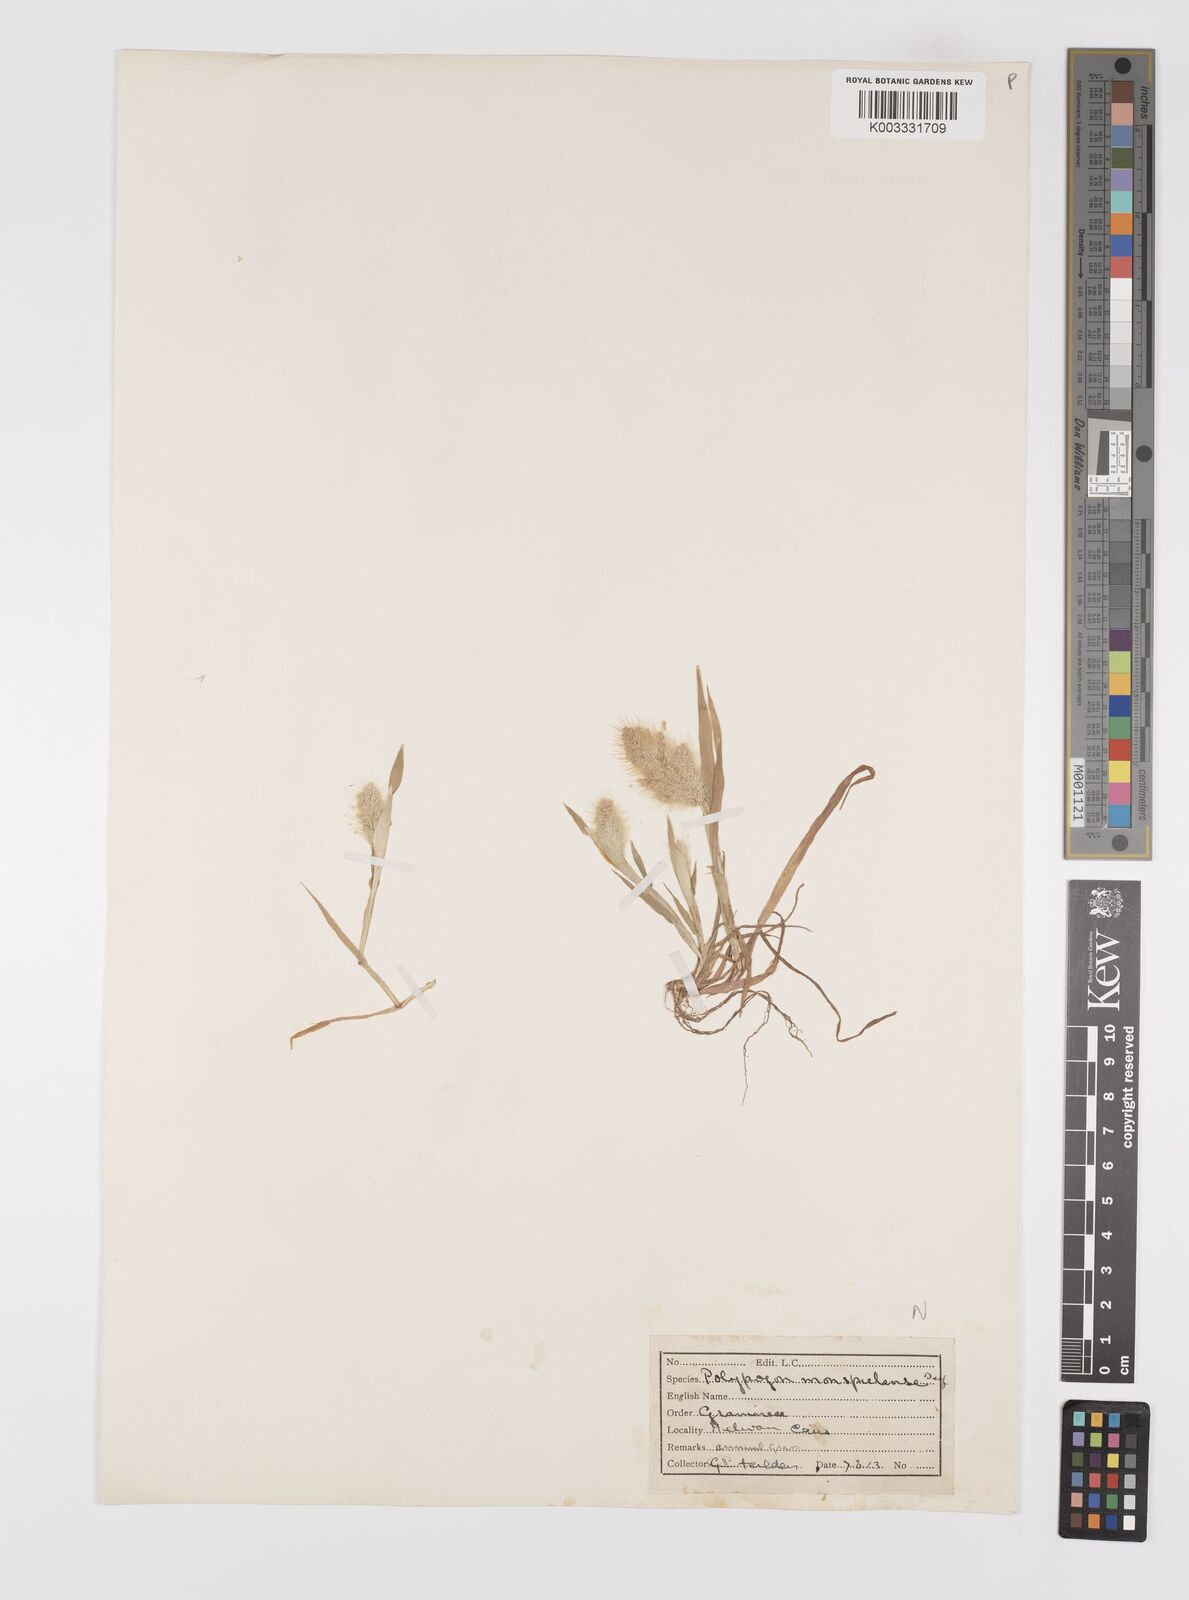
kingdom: Plantae
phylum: Tracheophyta
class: Liliopsida
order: Poales
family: Poaceae
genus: Polypogon
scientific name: Polypogon monspeliensis
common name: Annual rabbitsfoot grass
